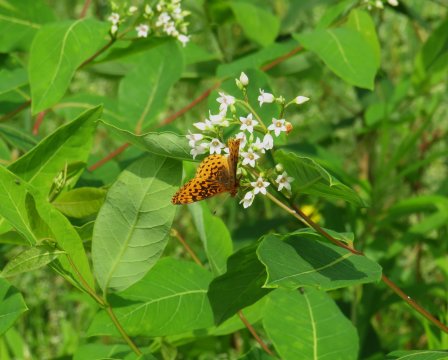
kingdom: Animalia
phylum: Arthropoda
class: Insecta
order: Lepidoptera
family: Nymphalidae
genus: Clossiana
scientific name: Clossiana toddi
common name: Meadow Fritillary
